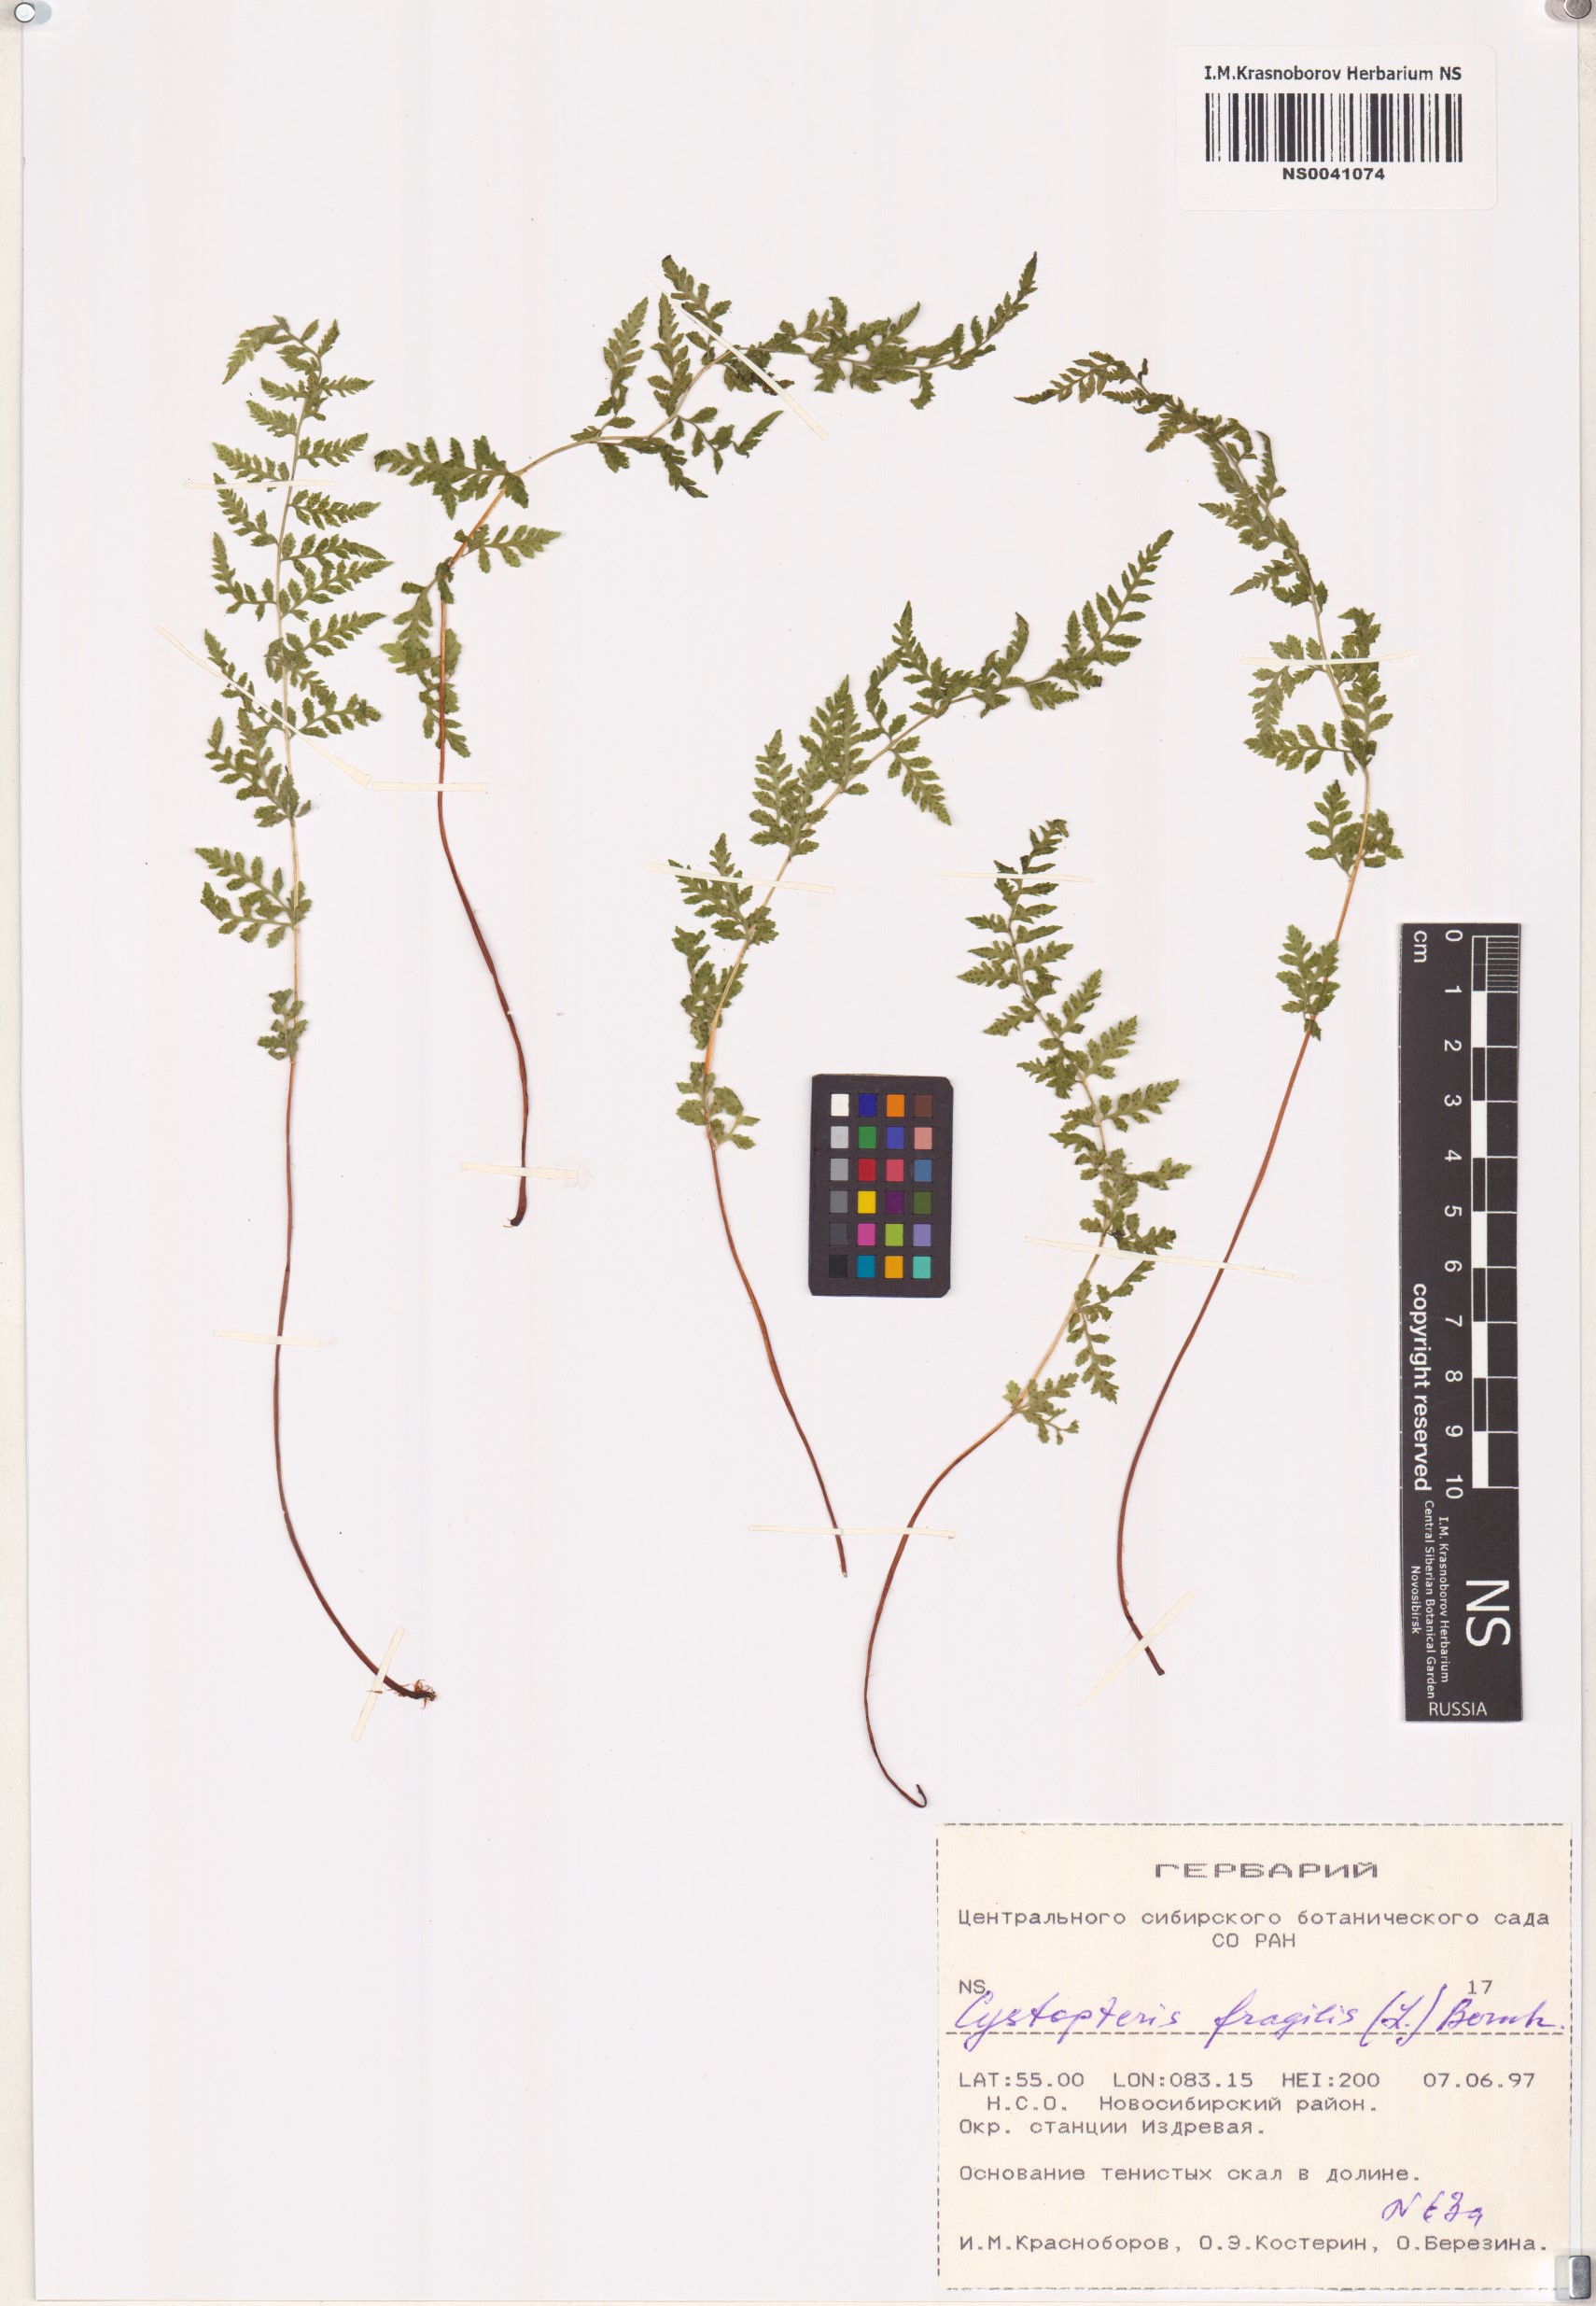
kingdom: Plantae
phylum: Tracheophyta
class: Polypodiopsida
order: Polypodiales
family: Cystopteridaceae
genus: Cystopteris
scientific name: Cystopteris fragilis
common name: Brittle bladder fern
